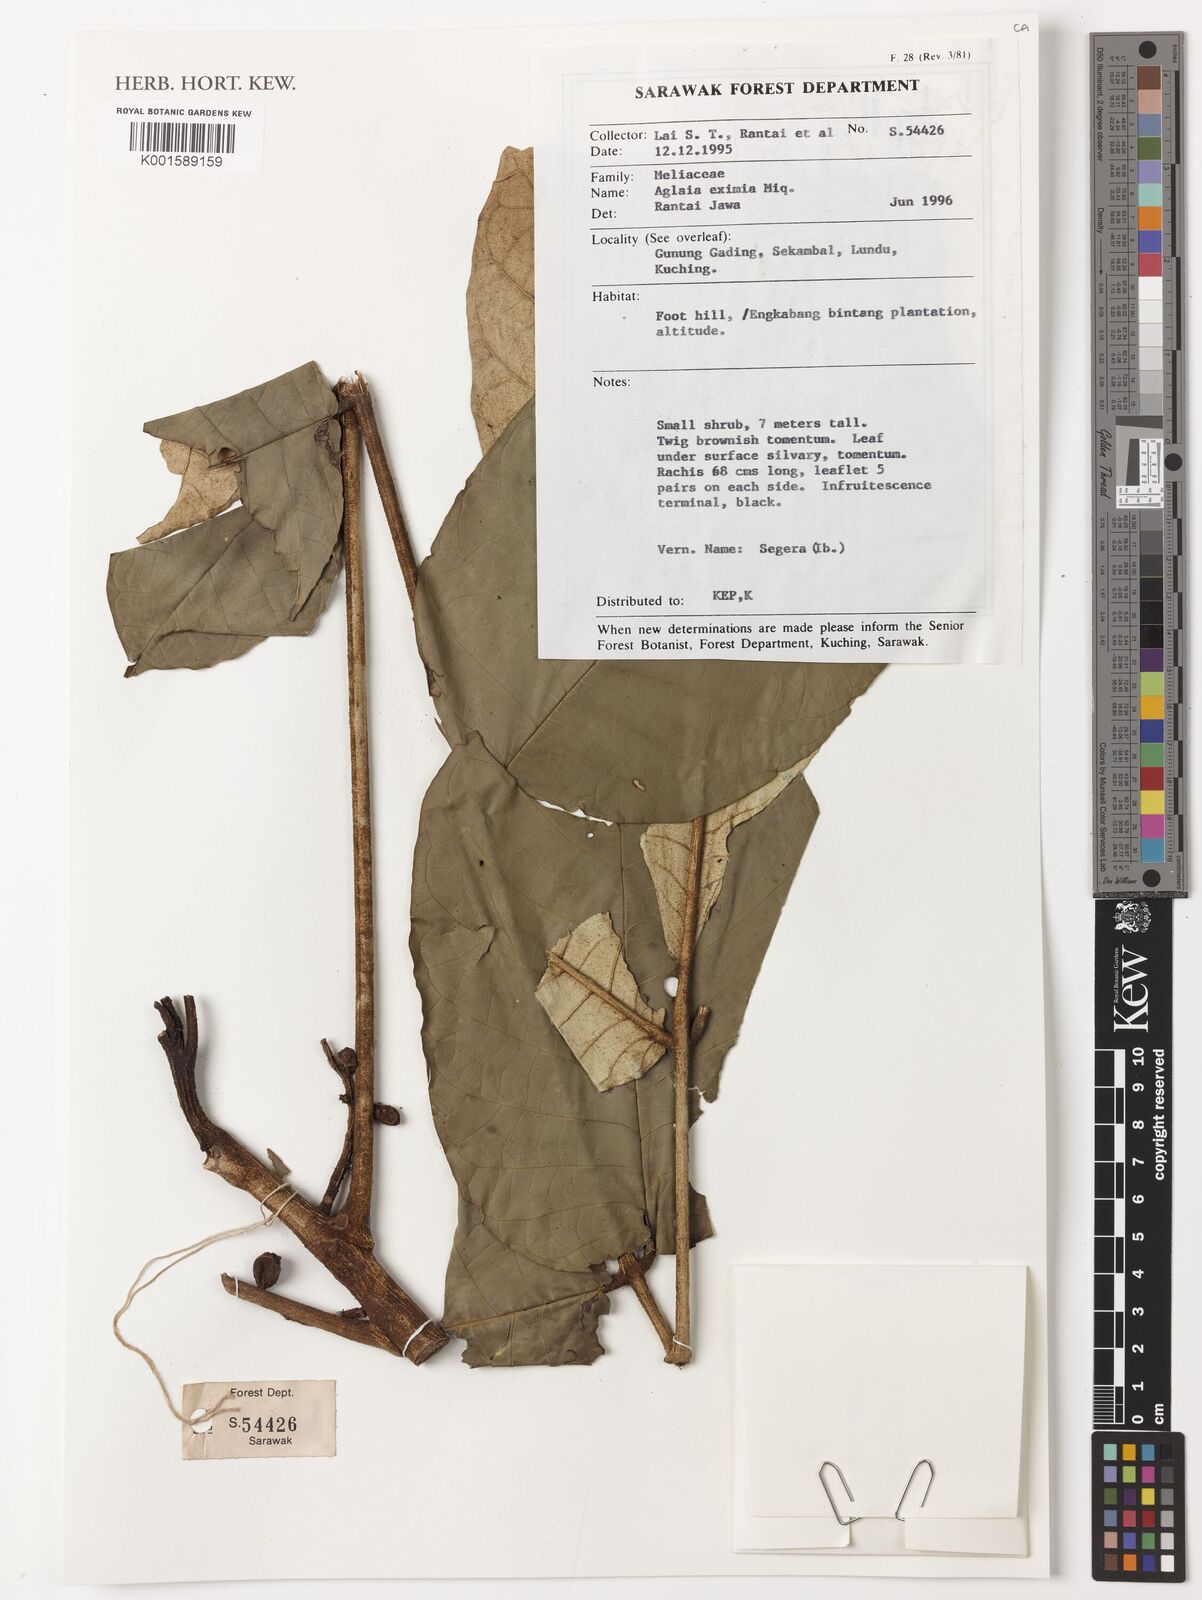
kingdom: Plantae
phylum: Tracheophyta
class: Magnoliopsida
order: Sapindales
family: Meliaceae
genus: Aglaia
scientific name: Aglaia eximia
